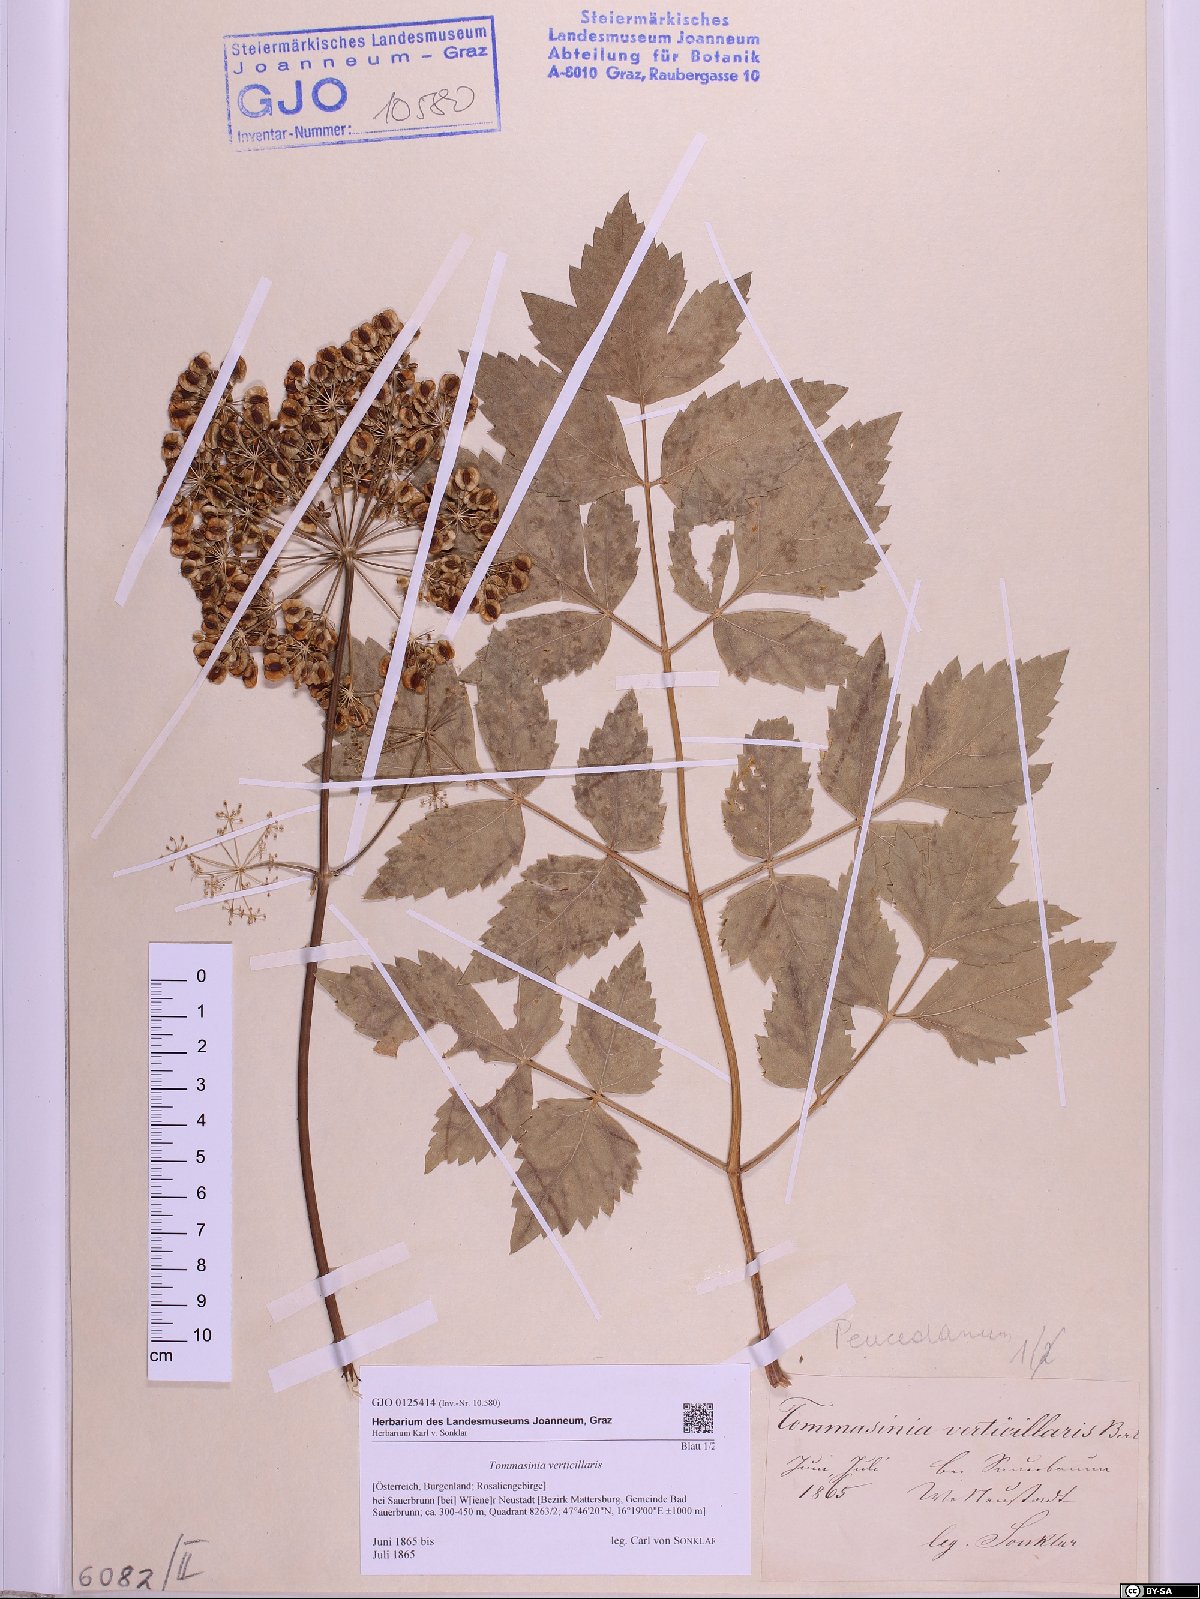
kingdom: Plantae
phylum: Tracheophyta
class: Magnoliopsida
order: Apiales
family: Apiaceae
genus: Tommasinia
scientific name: Tommasinia altissima
